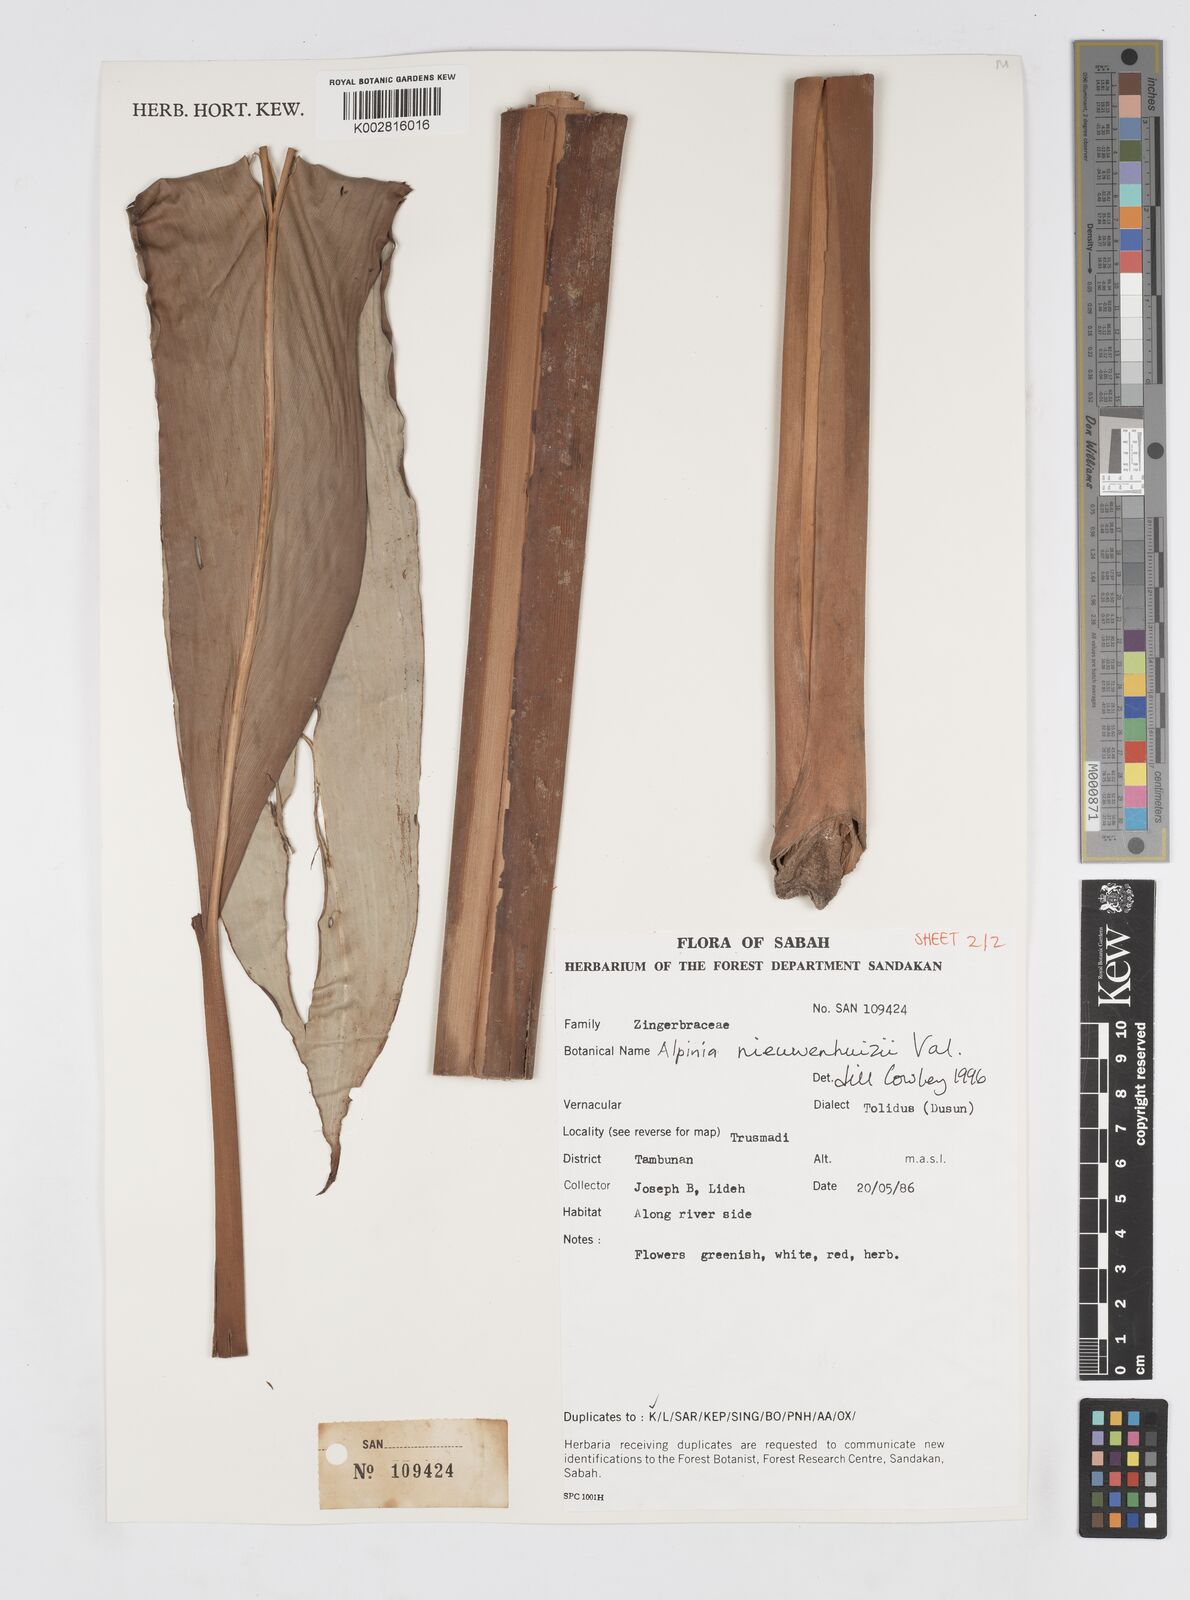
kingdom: Plantae
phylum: Tracheophyta
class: Liliopsida
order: Zingiberales
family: Zingiberaceae
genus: Alpinia
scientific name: Alpinia nieuwenhuizii
